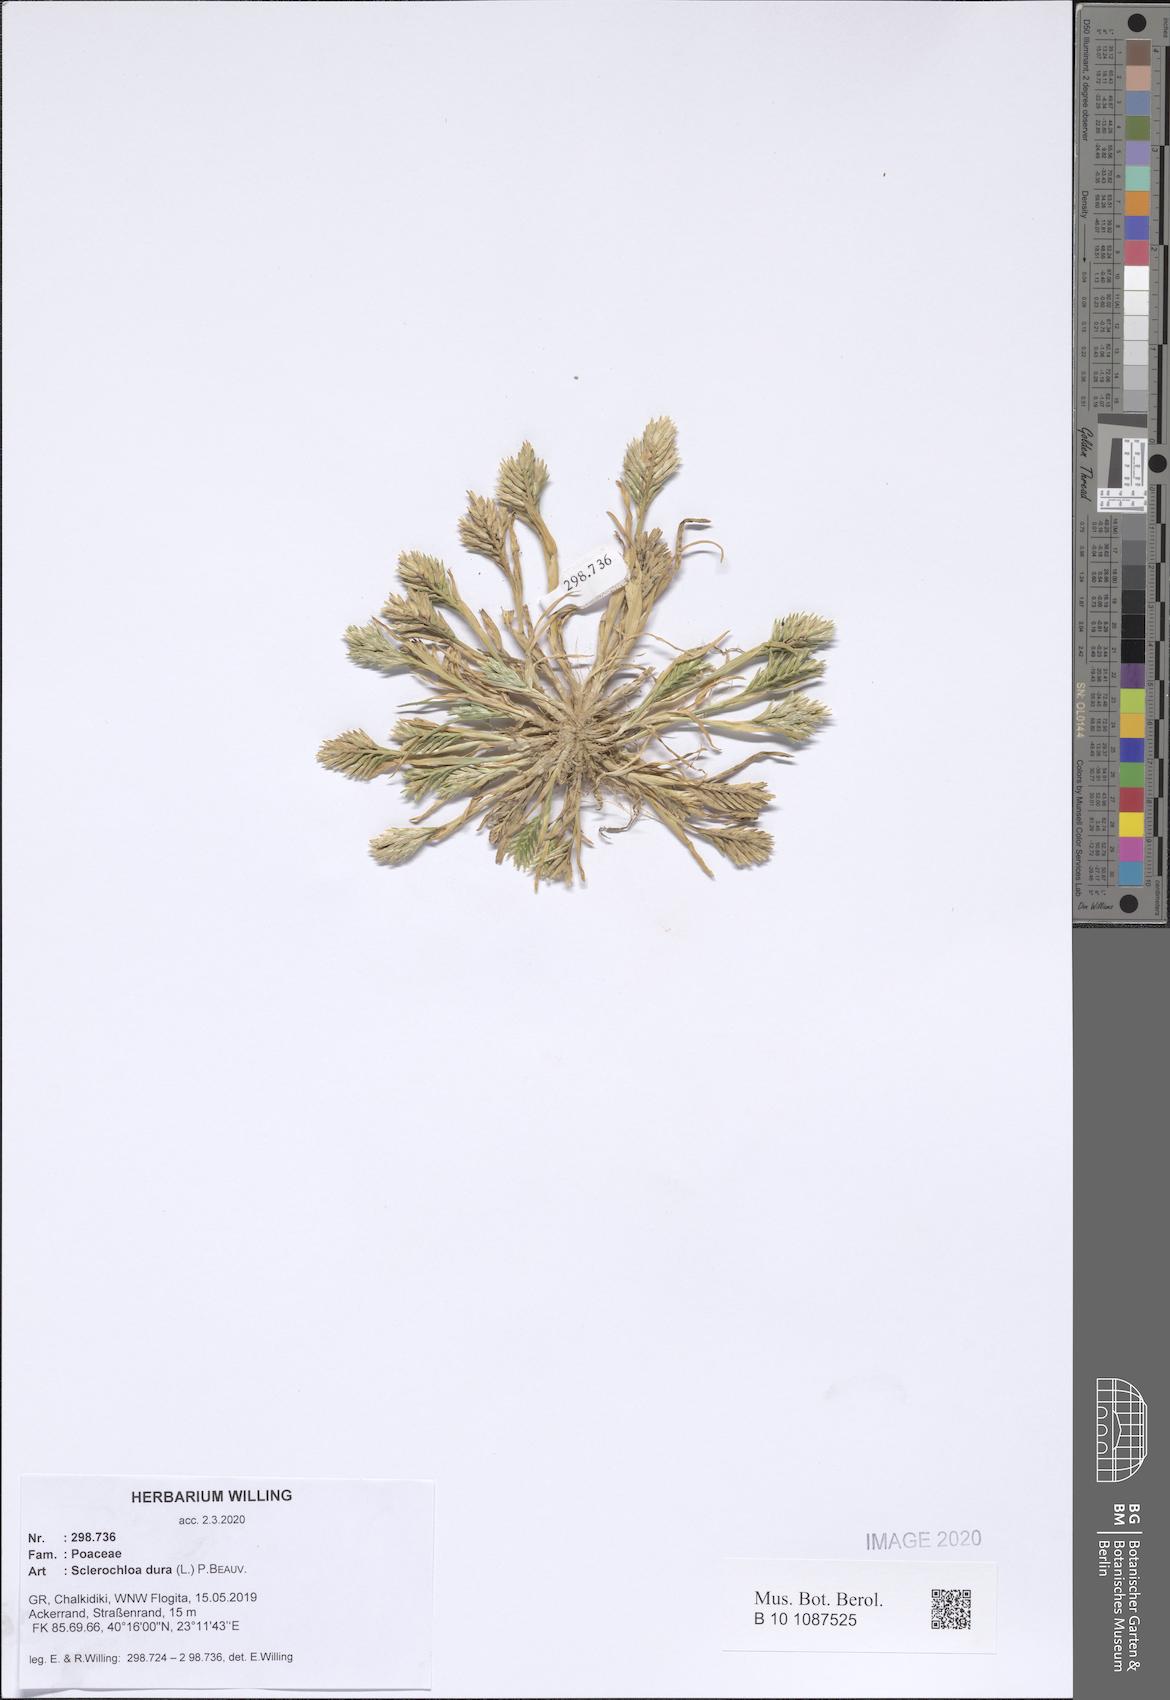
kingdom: Plantae
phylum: Tracheophyta
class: Liliopsida
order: Poales
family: Poaceae
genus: Sclerochloa
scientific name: Sclerochloa dura
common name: Common hardgrass
